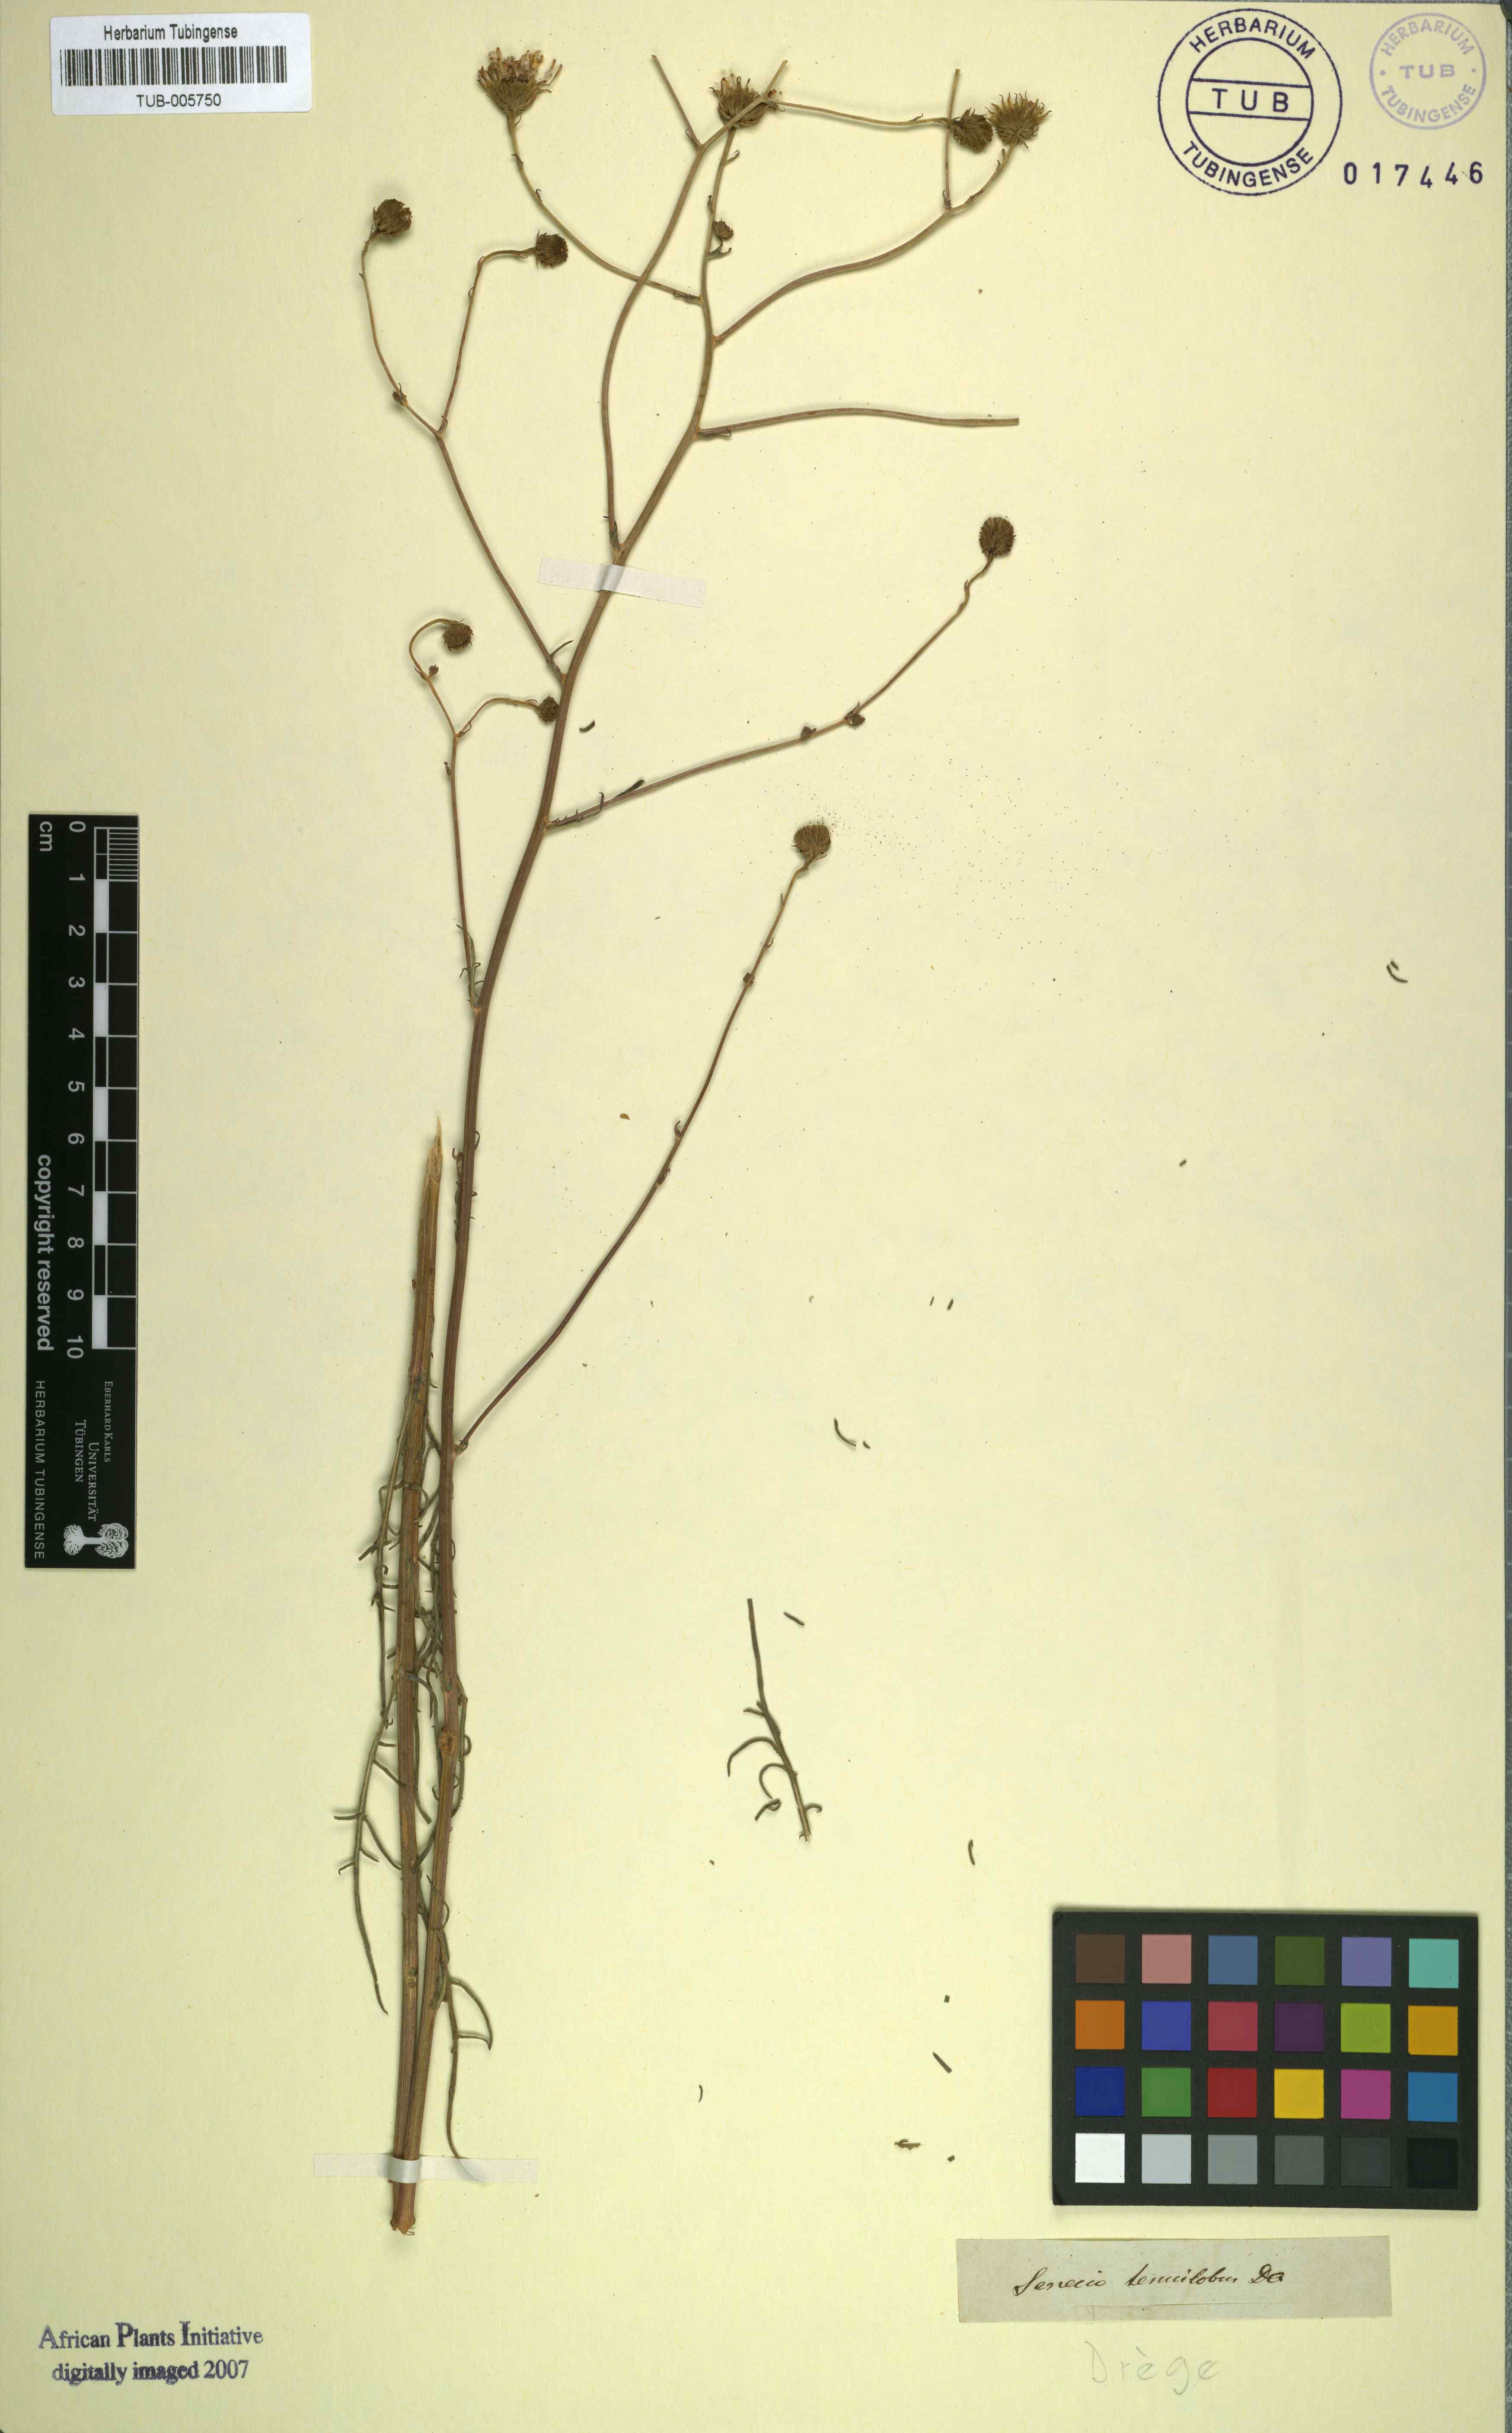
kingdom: Plantae
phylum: Tracheophyta
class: Magnoliopsida
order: Asterales
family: Asteraceae
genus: Senecio
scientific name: Senecio umbellatus
